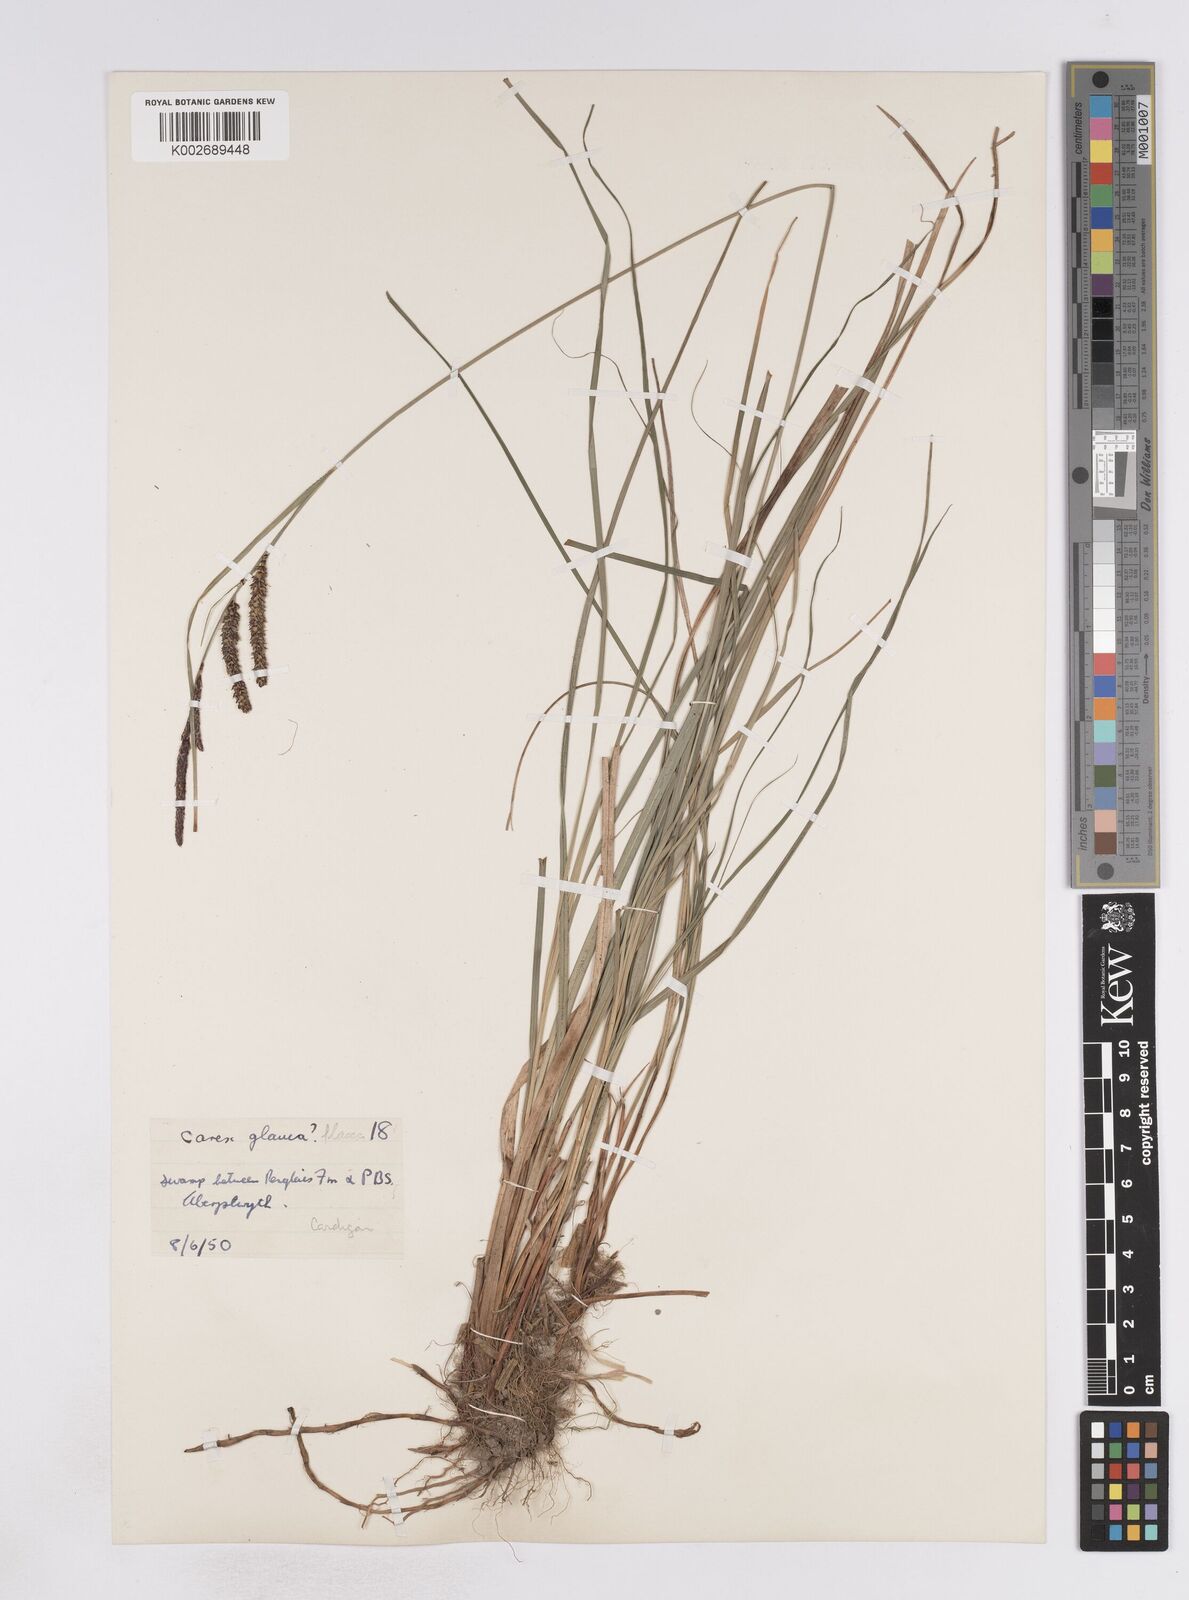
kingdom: Plantae
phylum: Tracheophyta
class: Liliopsida
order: Poales
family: Cyperaceae
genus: Carex
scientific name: Carex flacca
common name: Glaucous sedge
